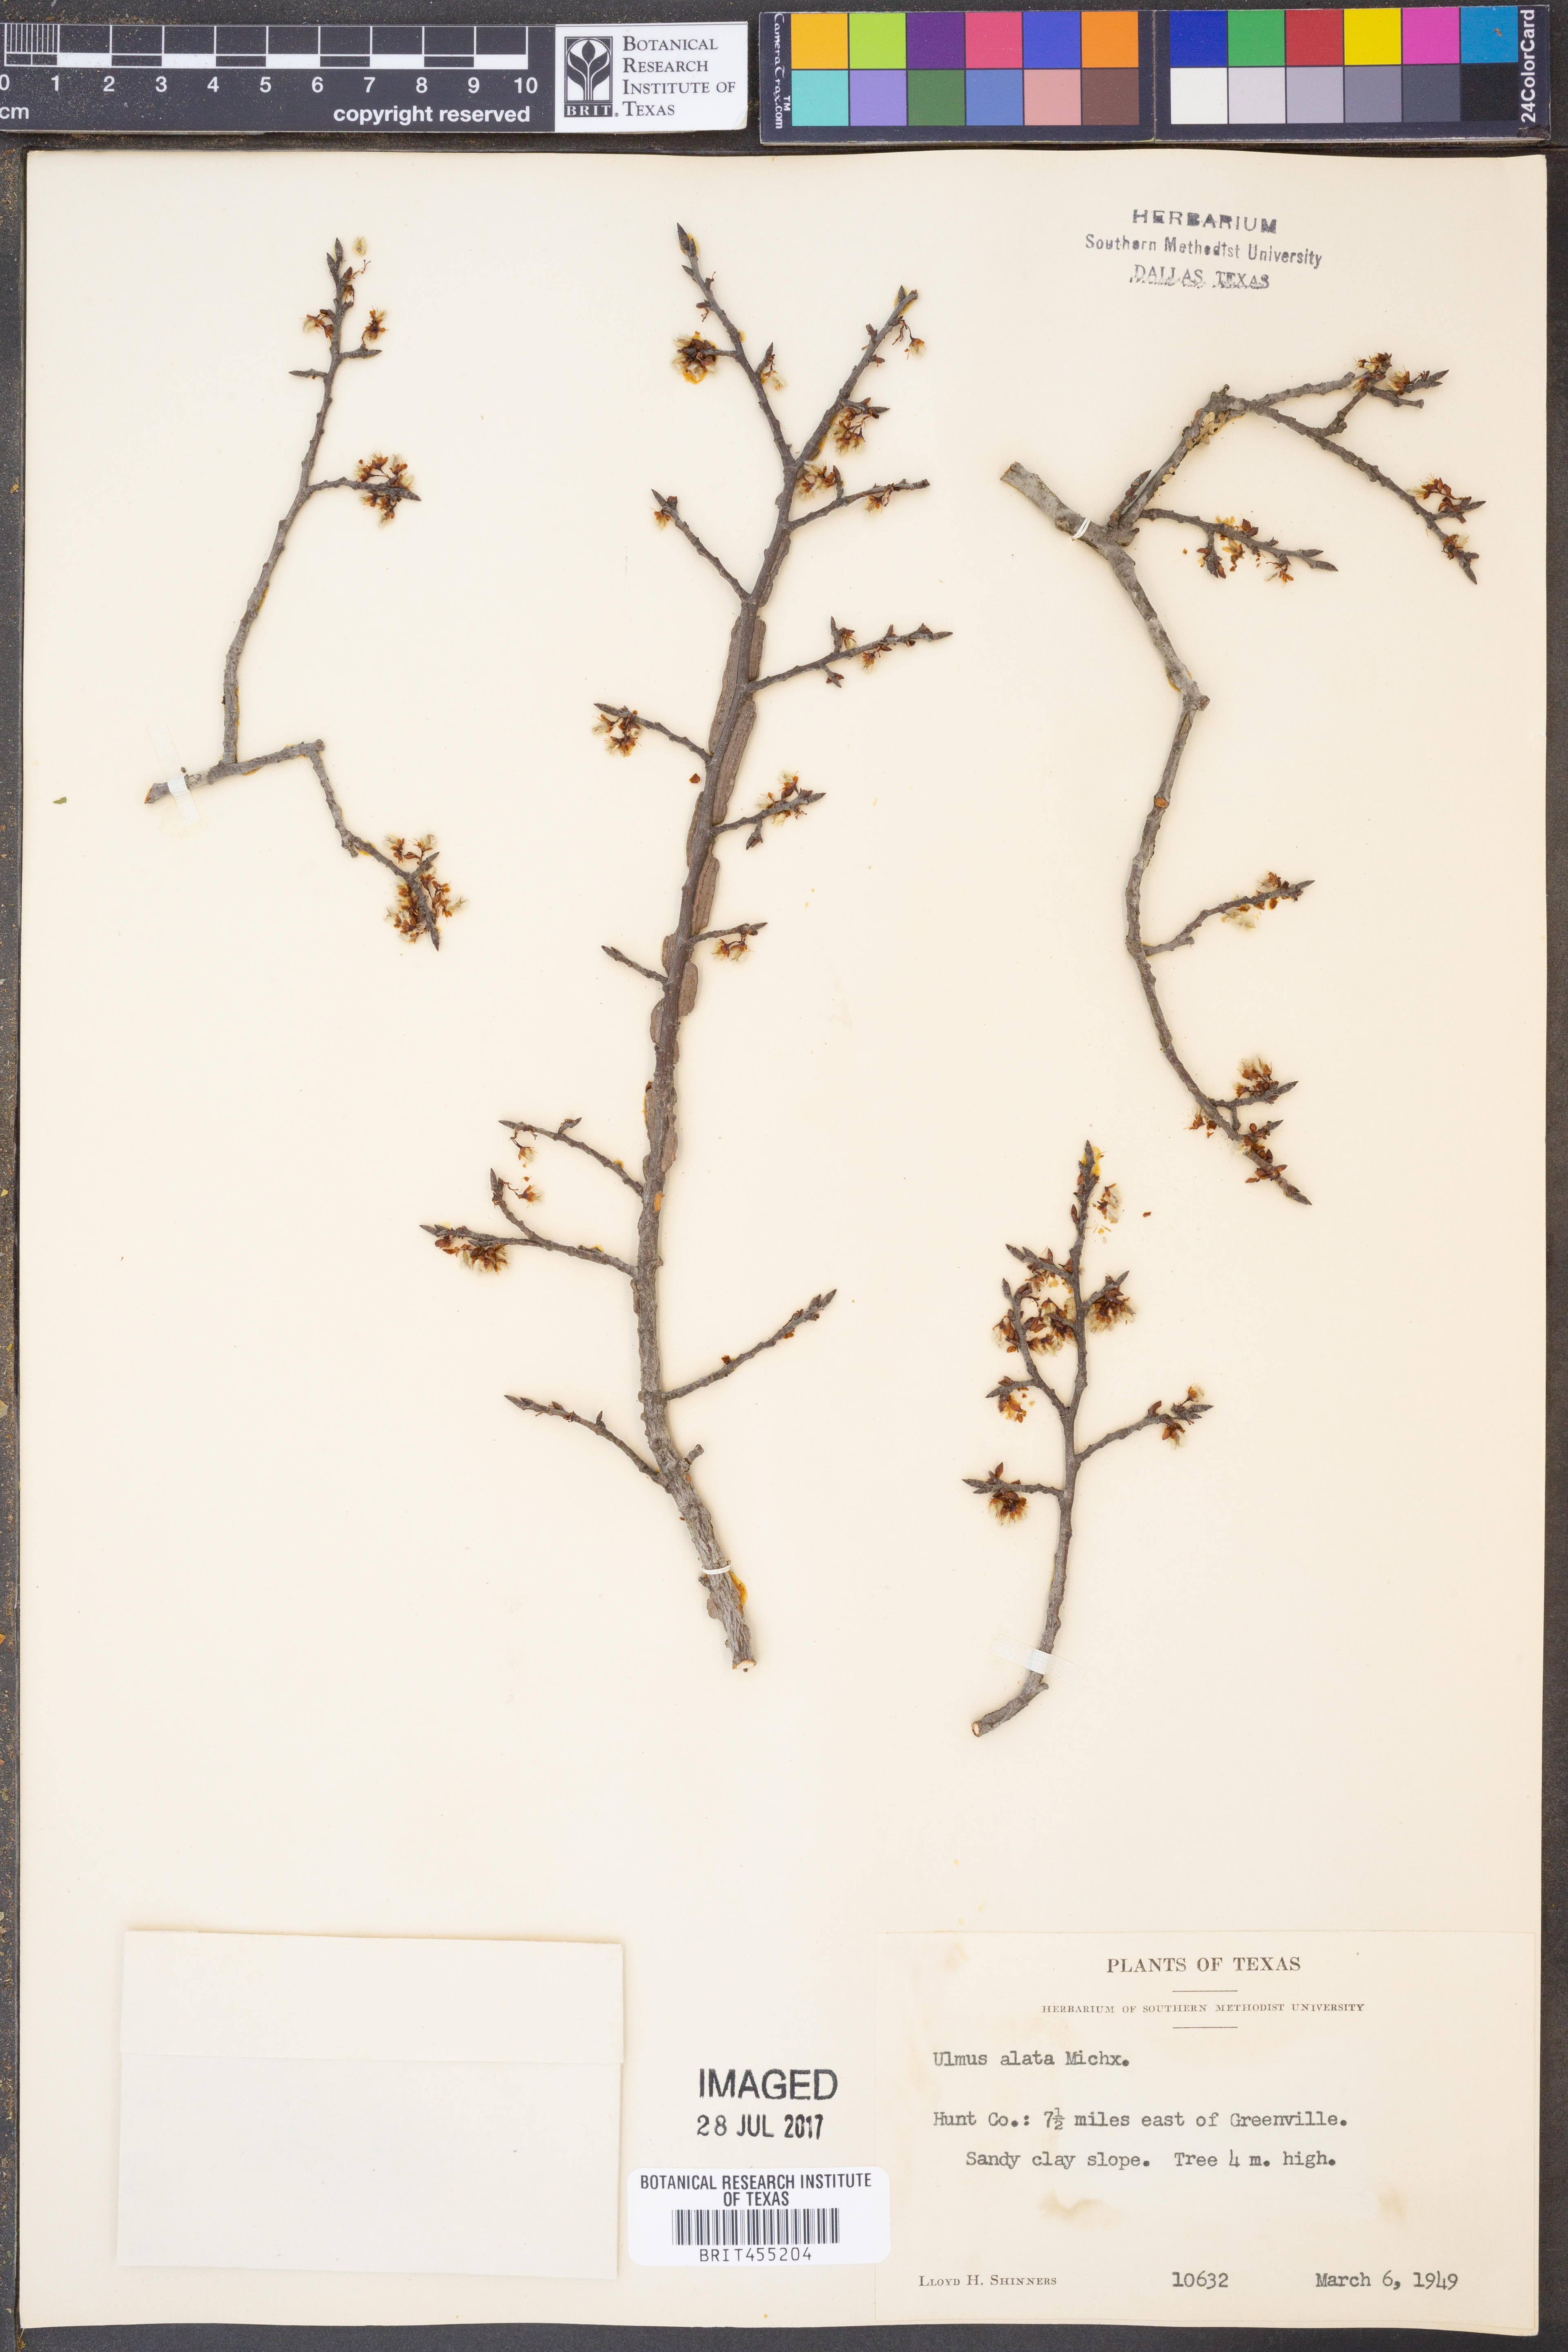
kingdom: Plantae
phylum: Tracheophyta
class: Magnoliopsida
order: Rosales
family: Ulmaceae
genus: Ulmus
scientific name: Ulmus alata
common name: Winged elm
